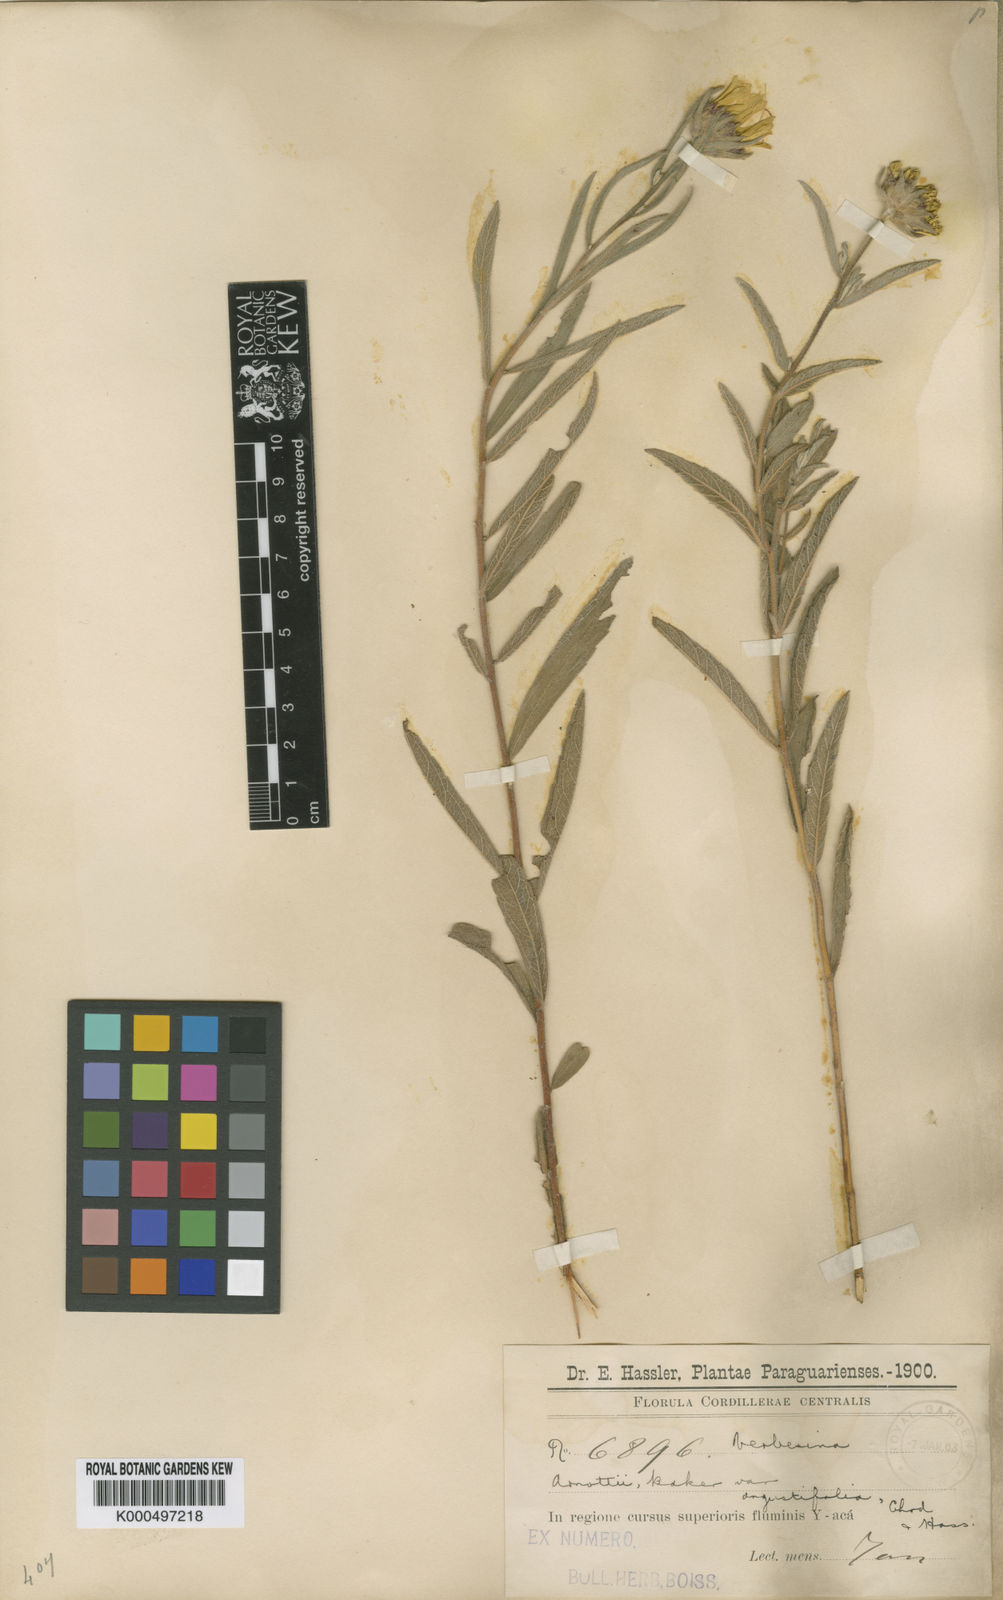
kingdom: Plantae
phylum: Tracheophyta
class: Magnoliopsida
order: Asterales
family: Asteraceae
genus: Dimerostemma
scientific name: Dimerostemma arnottii
